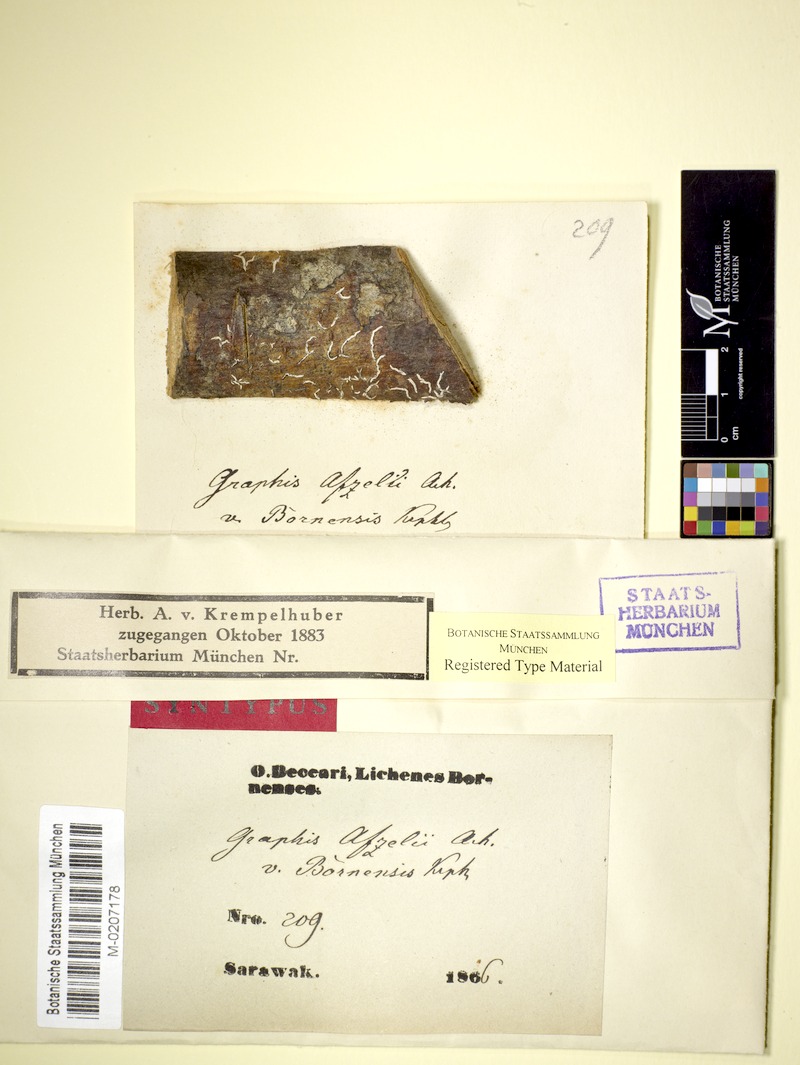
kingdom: Fungi
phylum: Ascomycota
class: Lecanoromycetes
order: Ostropales
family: Graphidaceae
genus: Dyplolabia
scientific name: Dyplolabia afzelii
